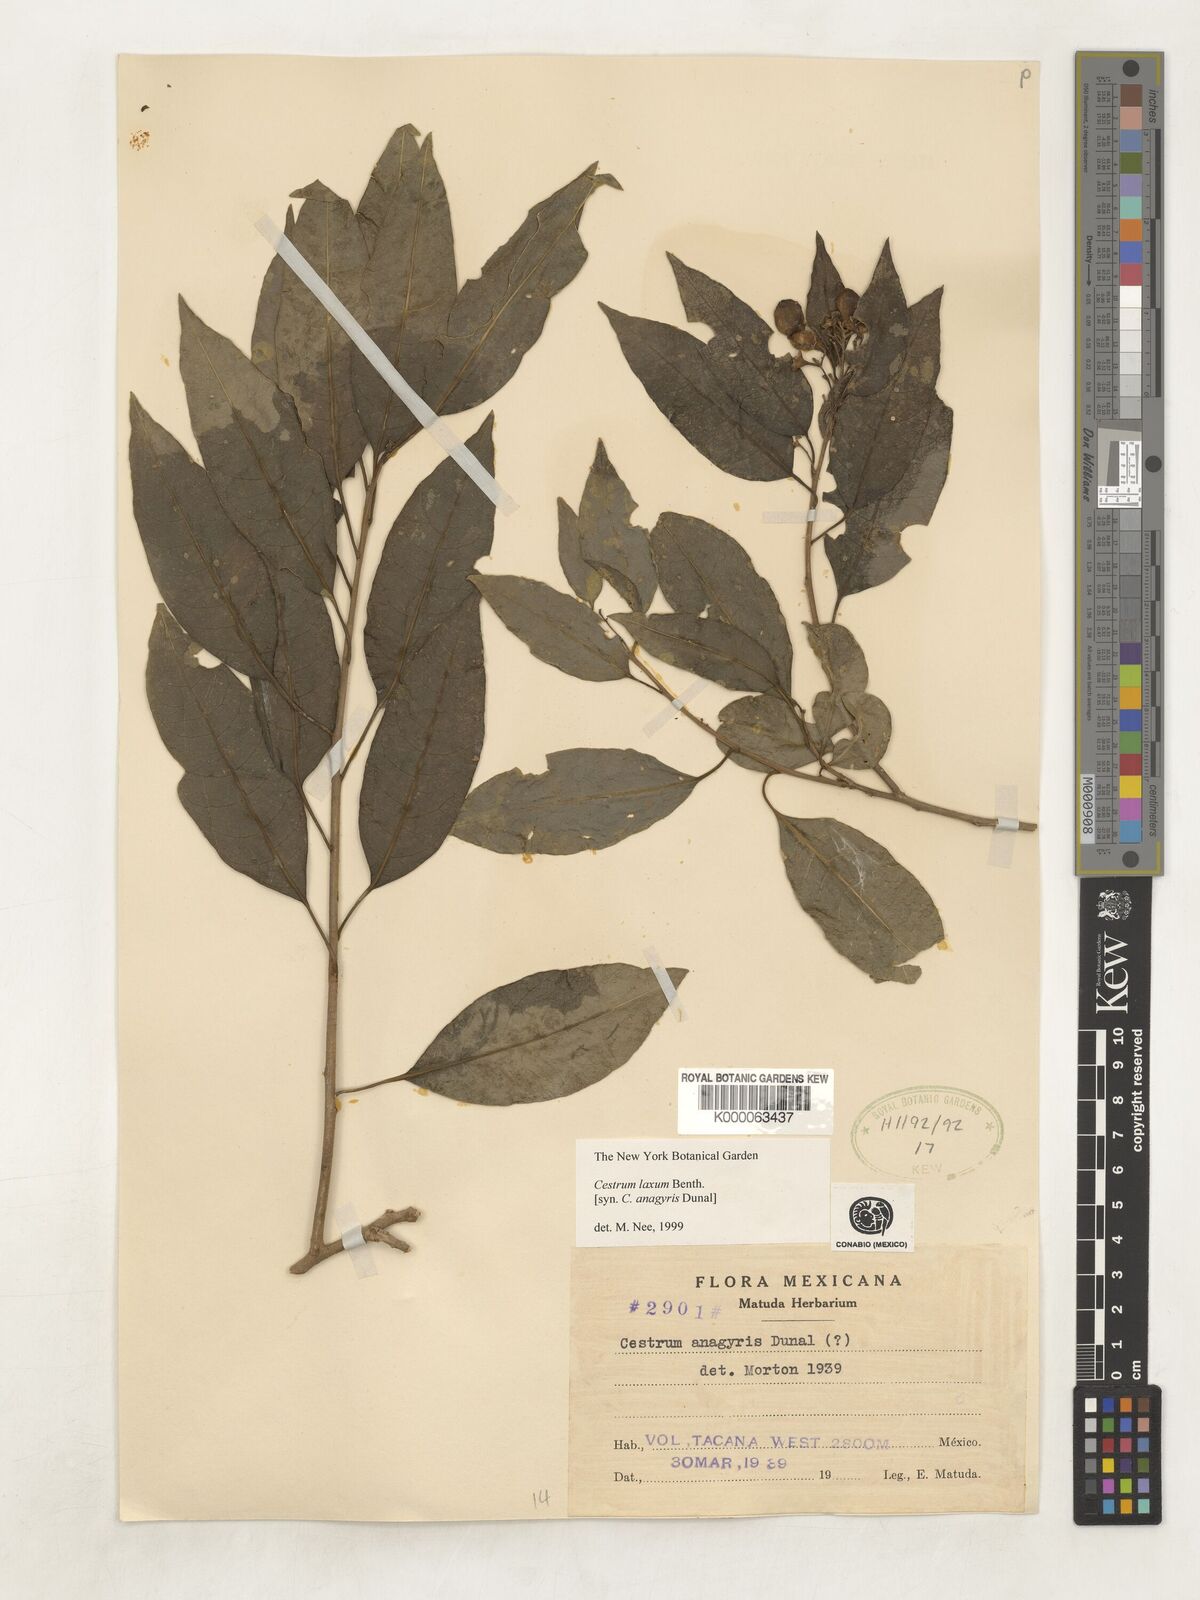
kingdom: Plantae
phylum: Tracheophyta
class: Magnoliopsida
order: Solanales
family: Solanaceae
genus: Cestrum
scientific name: Cestrum laxum
